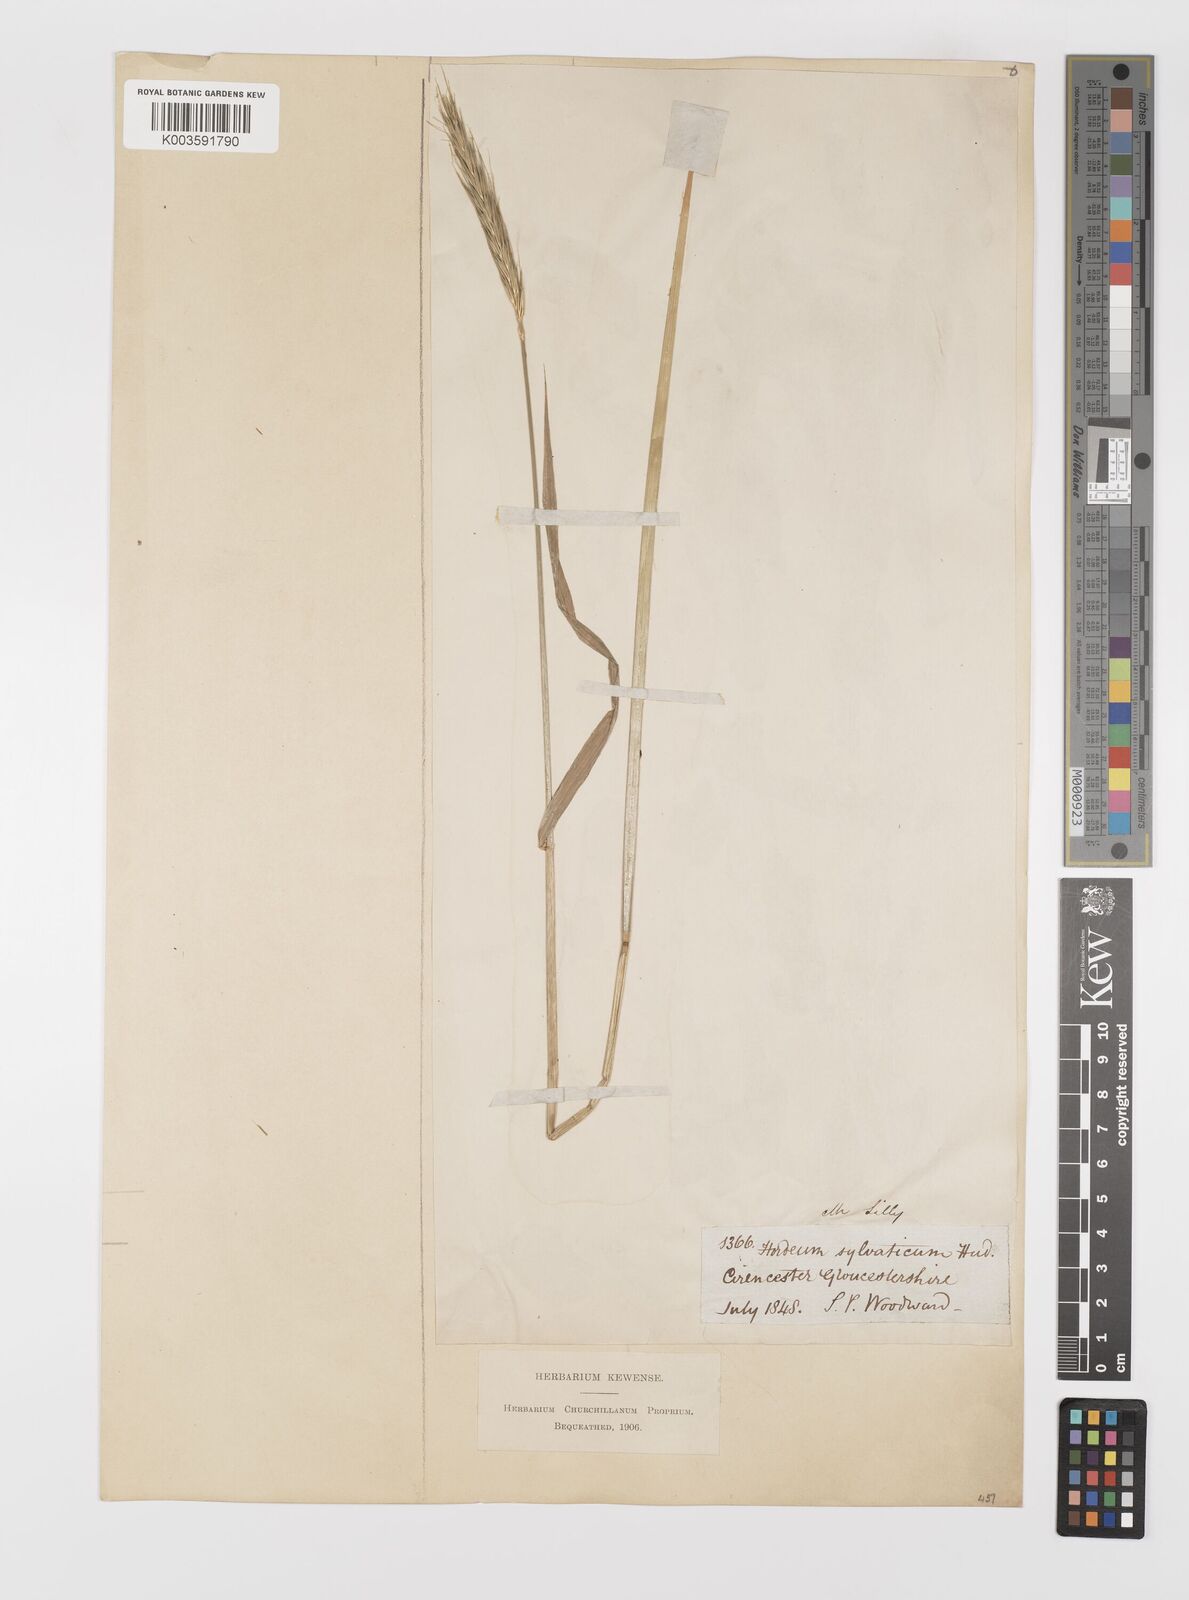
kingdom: Plantae
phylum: Tracheophyta
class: Liliopsida
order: Poales
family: Poaceae
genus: Hordelymus
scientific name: Hordelymus europaeus
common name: Wood-barley
